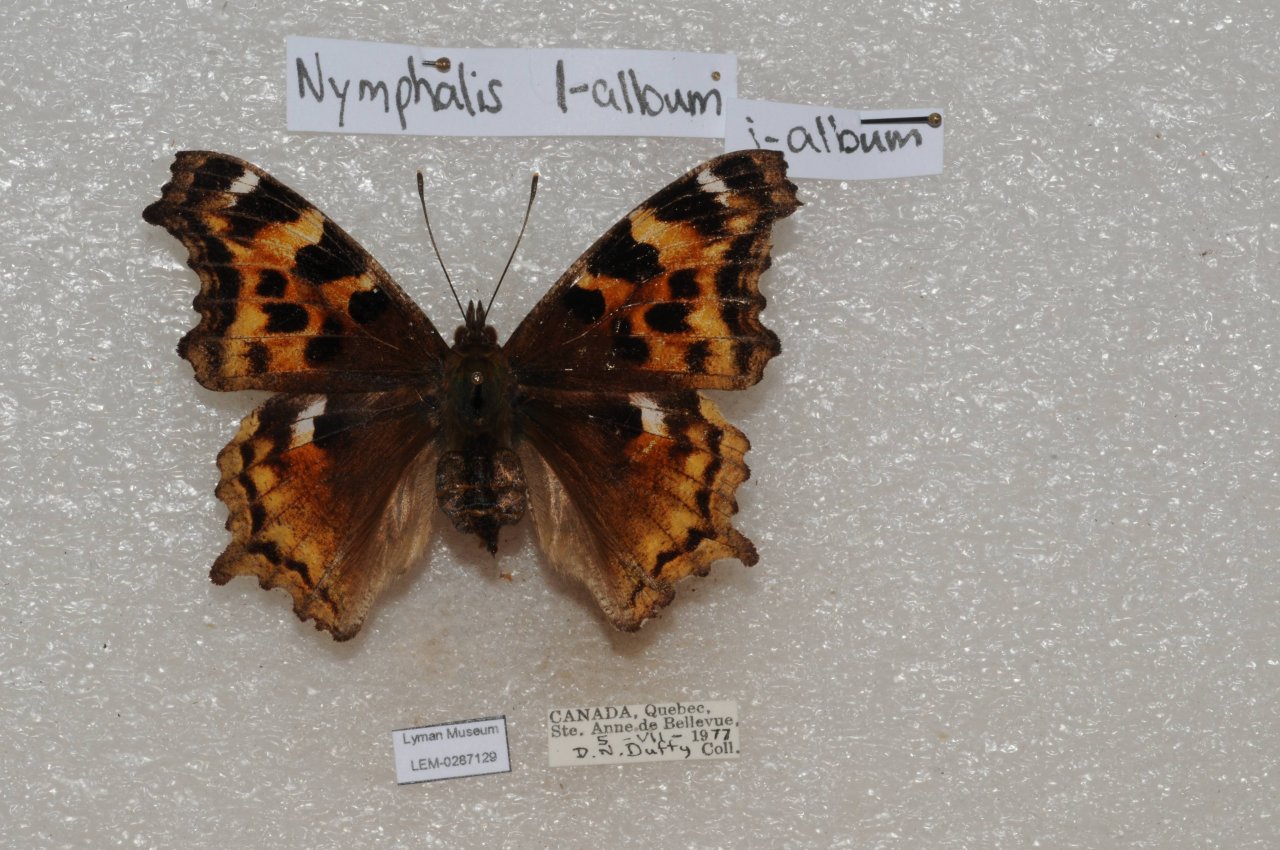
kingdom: Animalia
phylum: Arthropoda
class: Insecta
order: Lepidoptera
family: Nymphalidae
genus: Polygonia
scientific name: Polygonia vaualbum
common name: Compton Tortoiseshell
